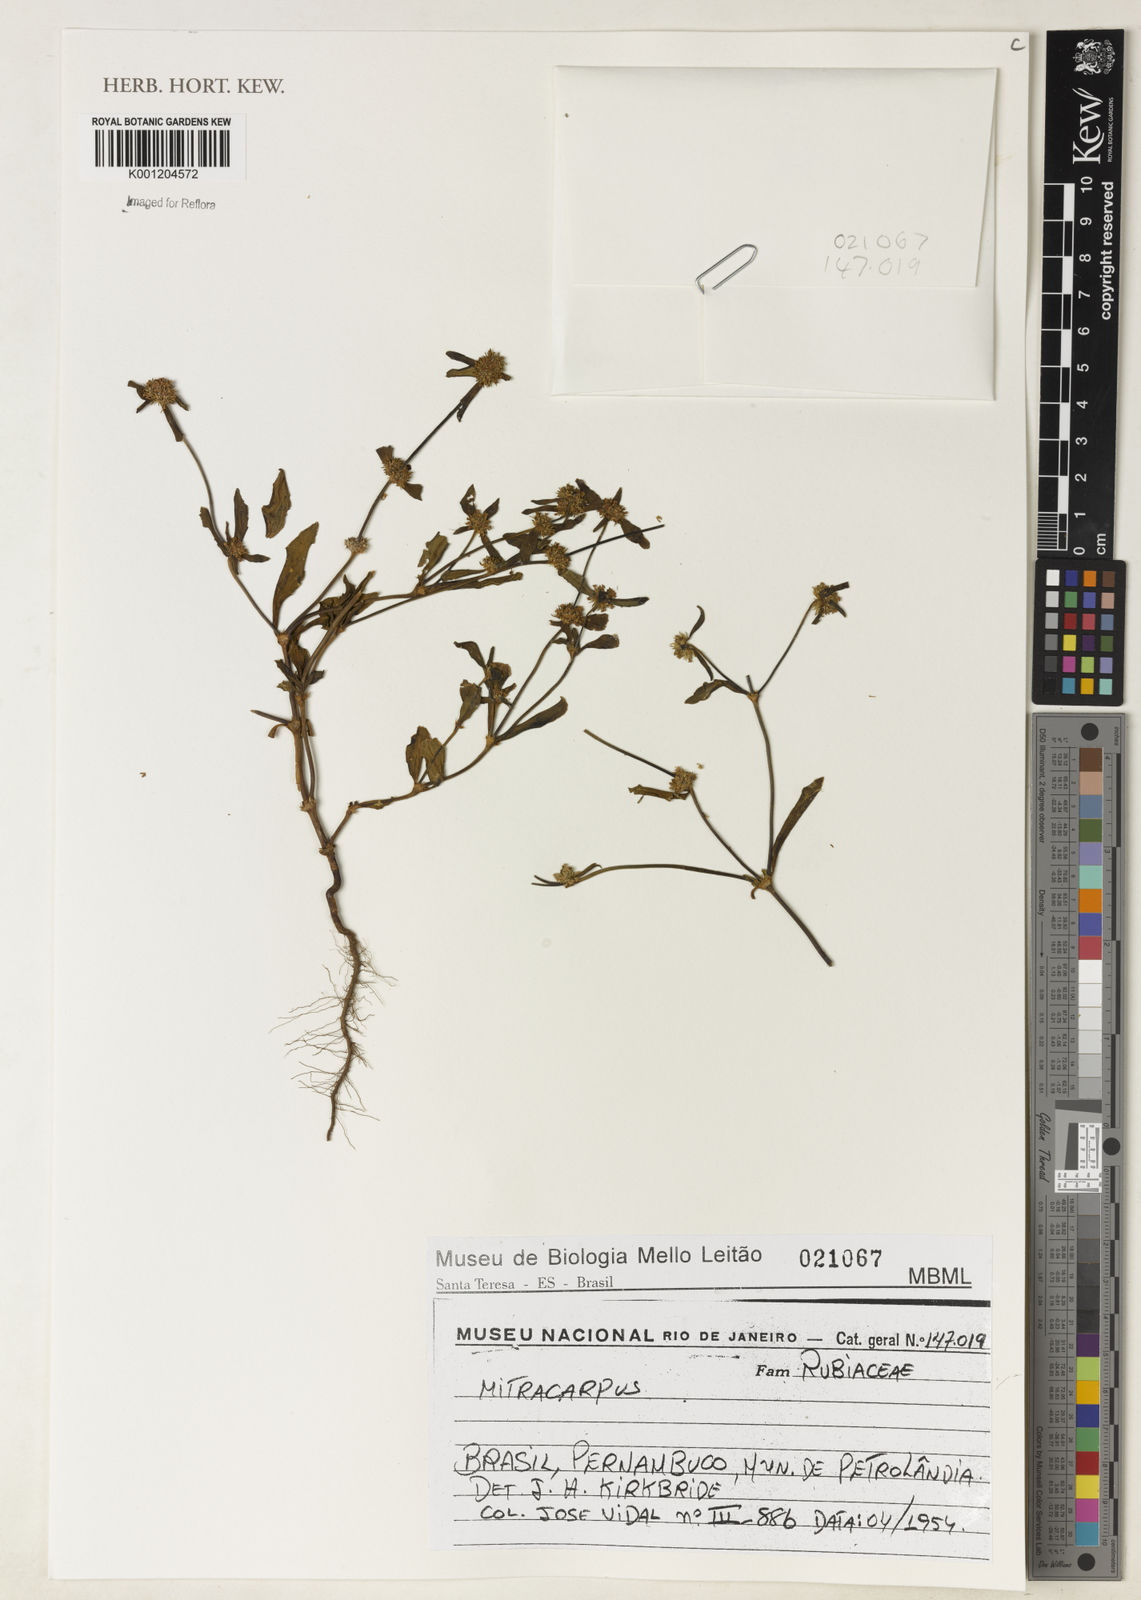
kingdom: Plantae
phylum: Tracheophyta
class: Magnoliopsida
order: Gentianales
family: Rubiaceae
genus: Mitracarpus
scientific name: Mitracarpus
